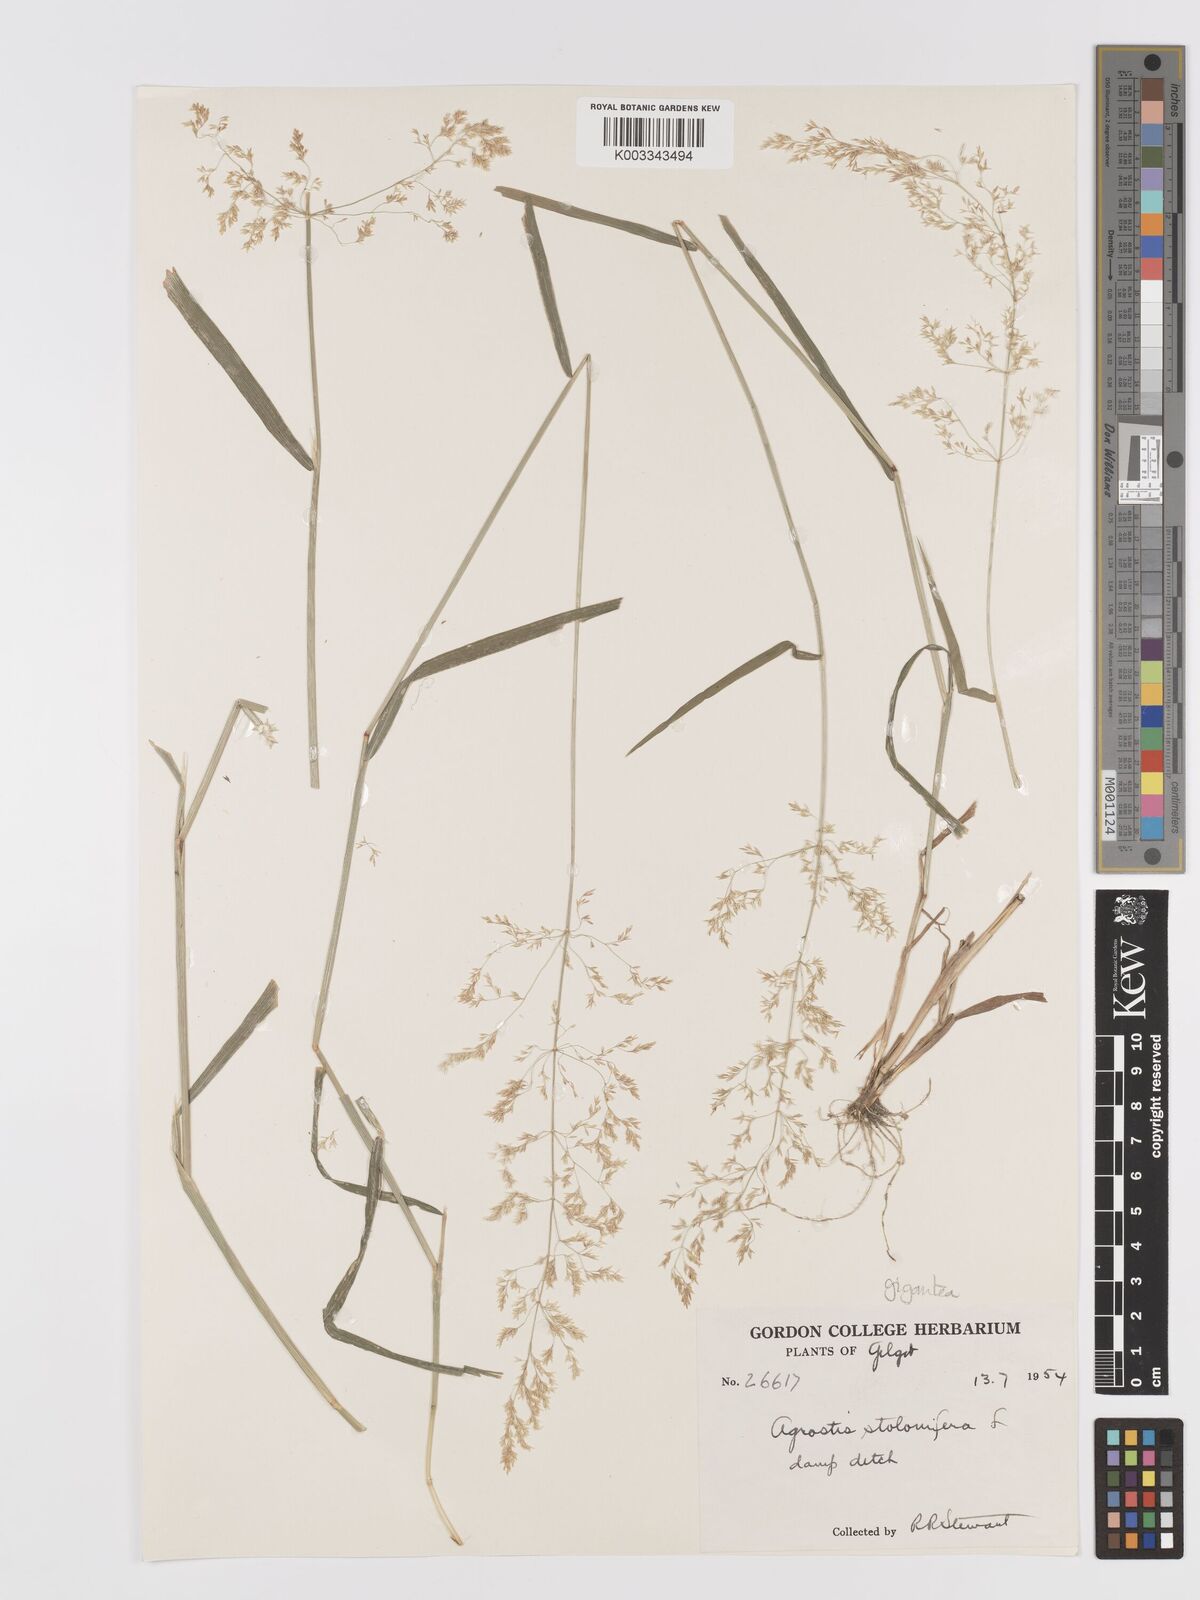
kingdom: Plantae
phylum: Tracheophyta
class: Liliopsida
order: Poales
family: Poaceae
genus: Agrostis
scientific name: Agrostis gigantea
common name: Black bent
